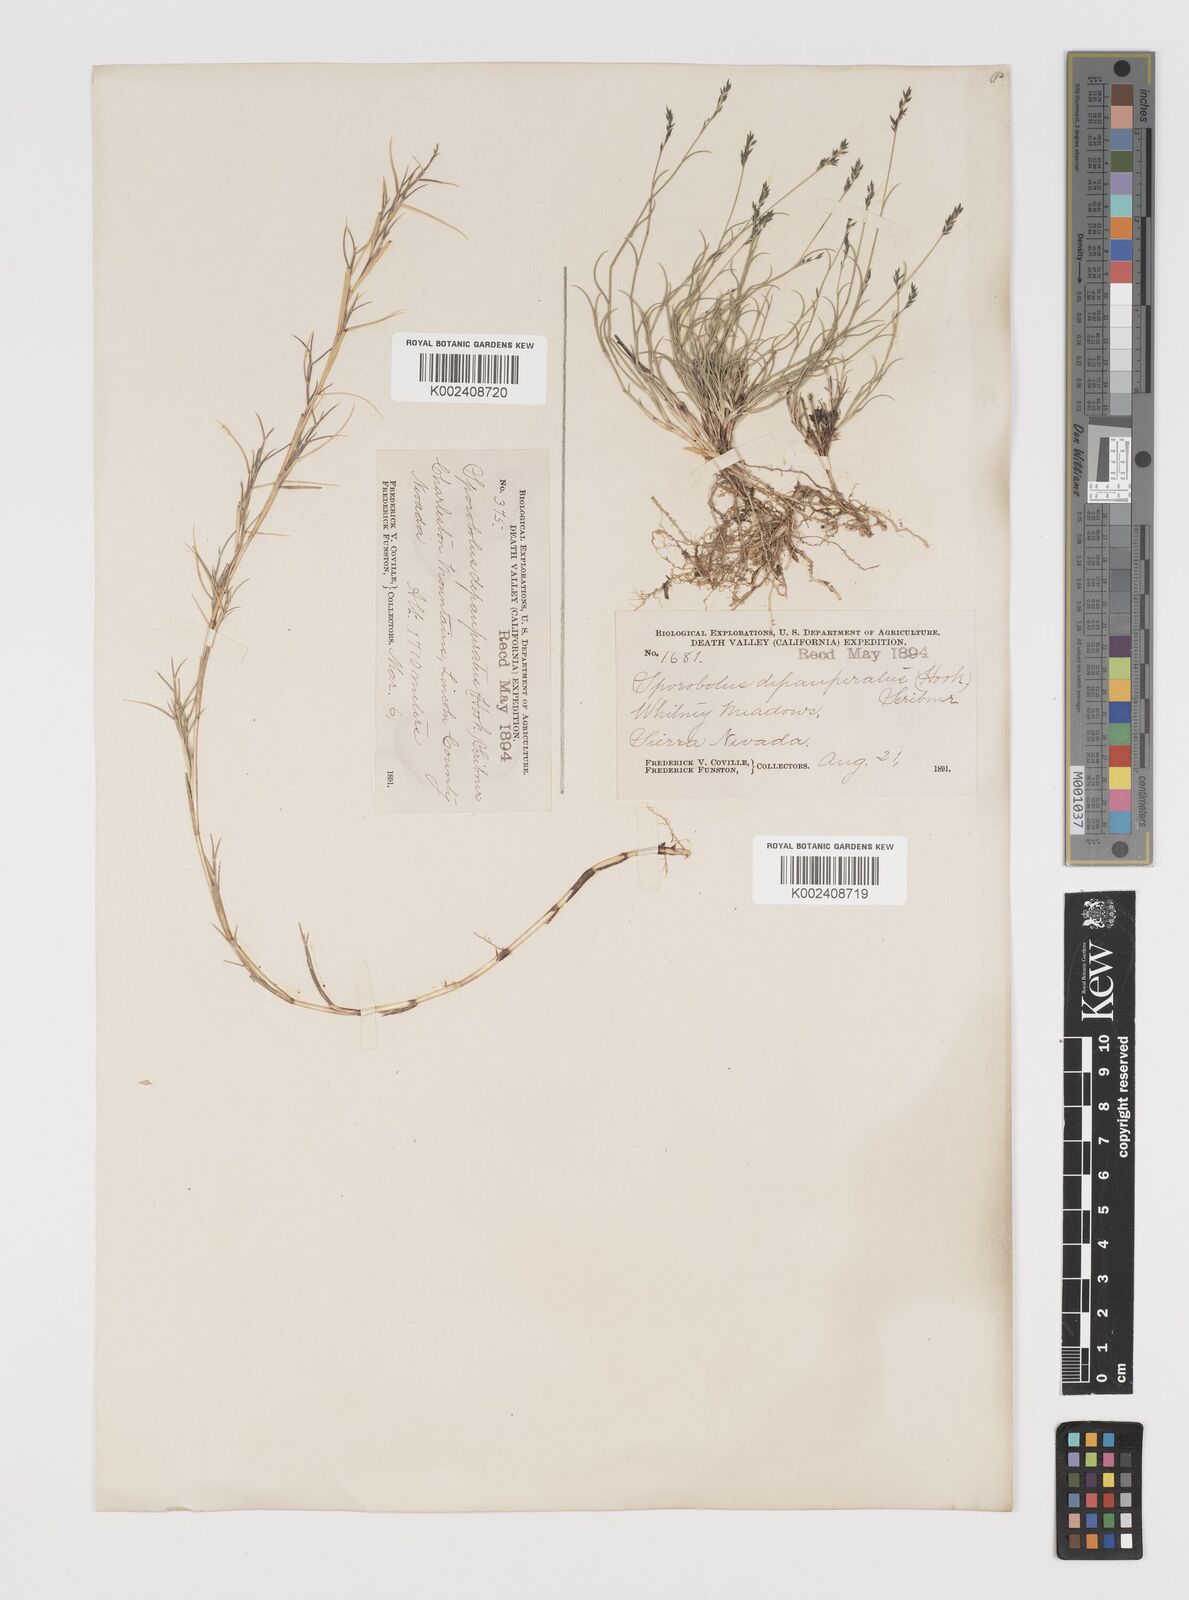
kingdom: Plantae
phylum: Tracheophyta
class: Liliopsida
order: Poales
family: Poaceae
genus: Muhlenbergia
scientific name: Muhlenbergia richardsonis
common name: Mat muhly
